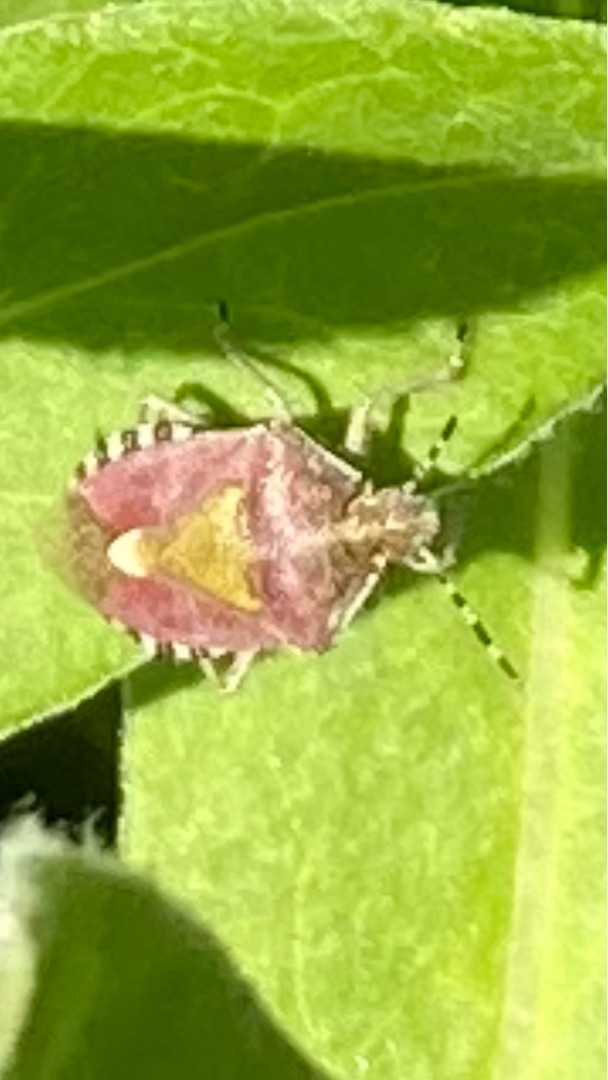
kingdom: Animalia
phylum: Arthropoda
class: Insecta
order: Hemiptera
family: Pentatomidae
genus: Dolycoris
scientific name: Dolycoris baccarum
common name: Almindelig bærtæge
